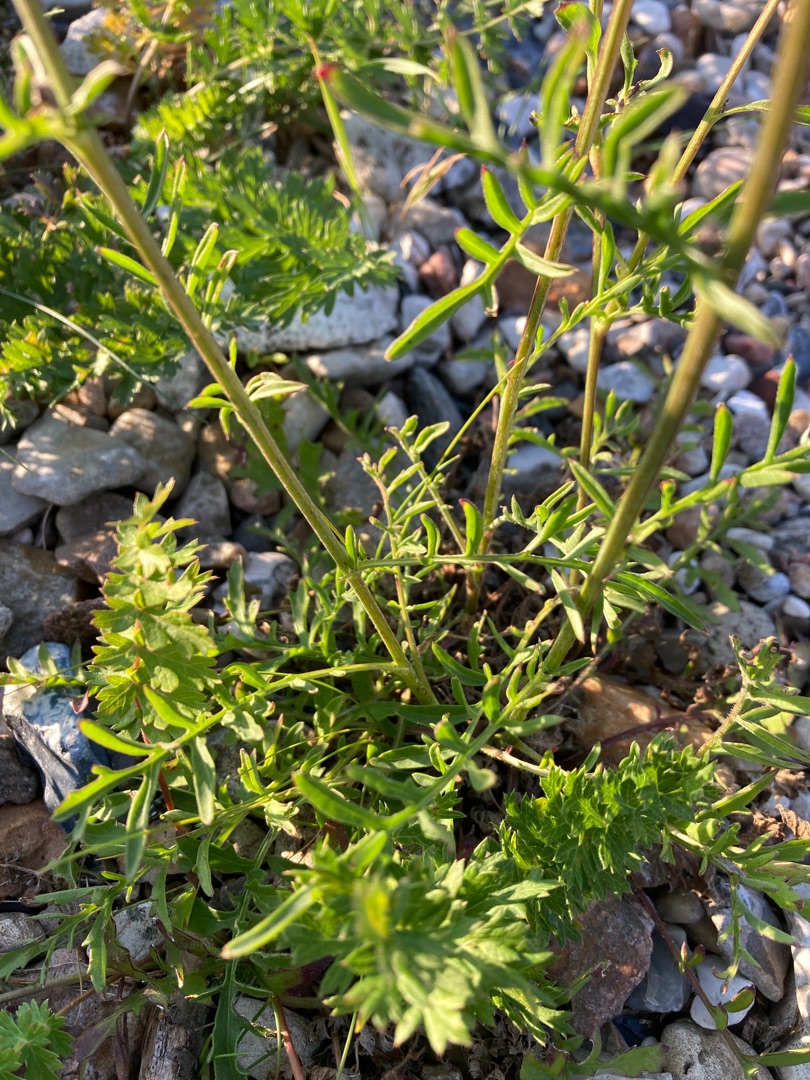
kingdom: Plantae
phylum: Tracheophyta
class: Magnoliopsida
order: Asterales
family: Asteraceae
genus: Centaurea
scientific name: Centaurea scabiosa
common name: Stor knopurt
